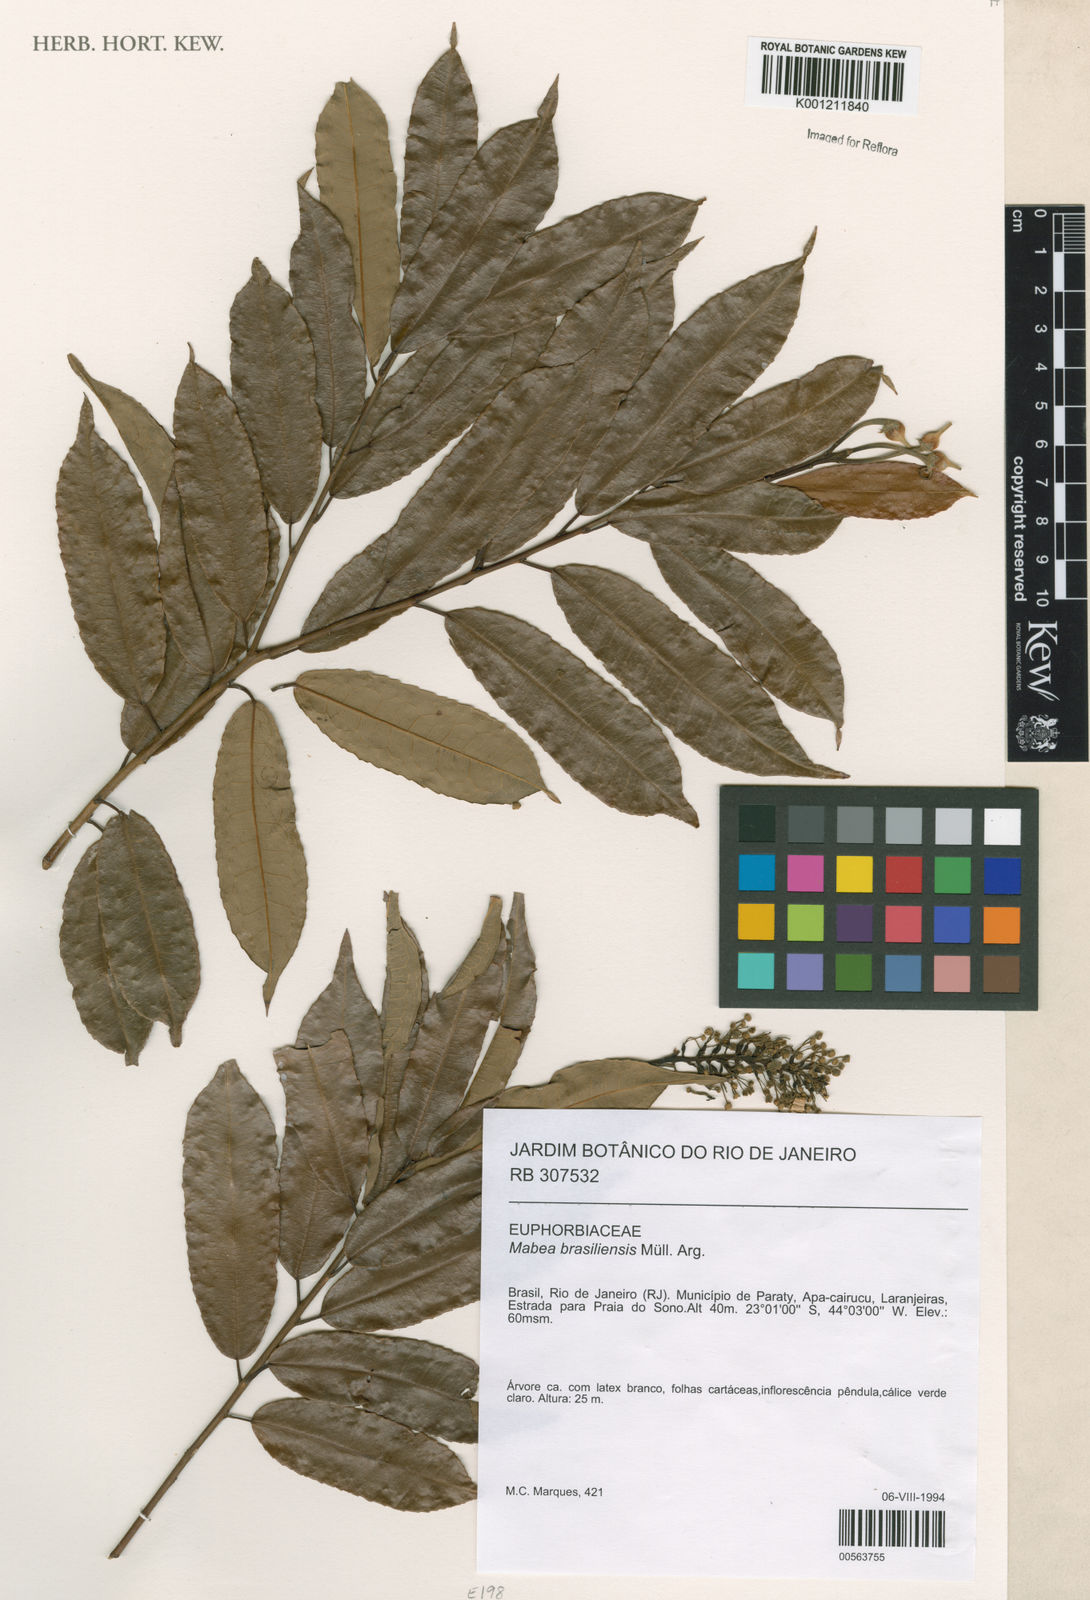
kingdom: Plantae
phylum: Tracheophyta
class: Magnoliopsida
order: Malpighiales
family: Euphorbiaceae
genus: Mabea
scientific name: Mabea
